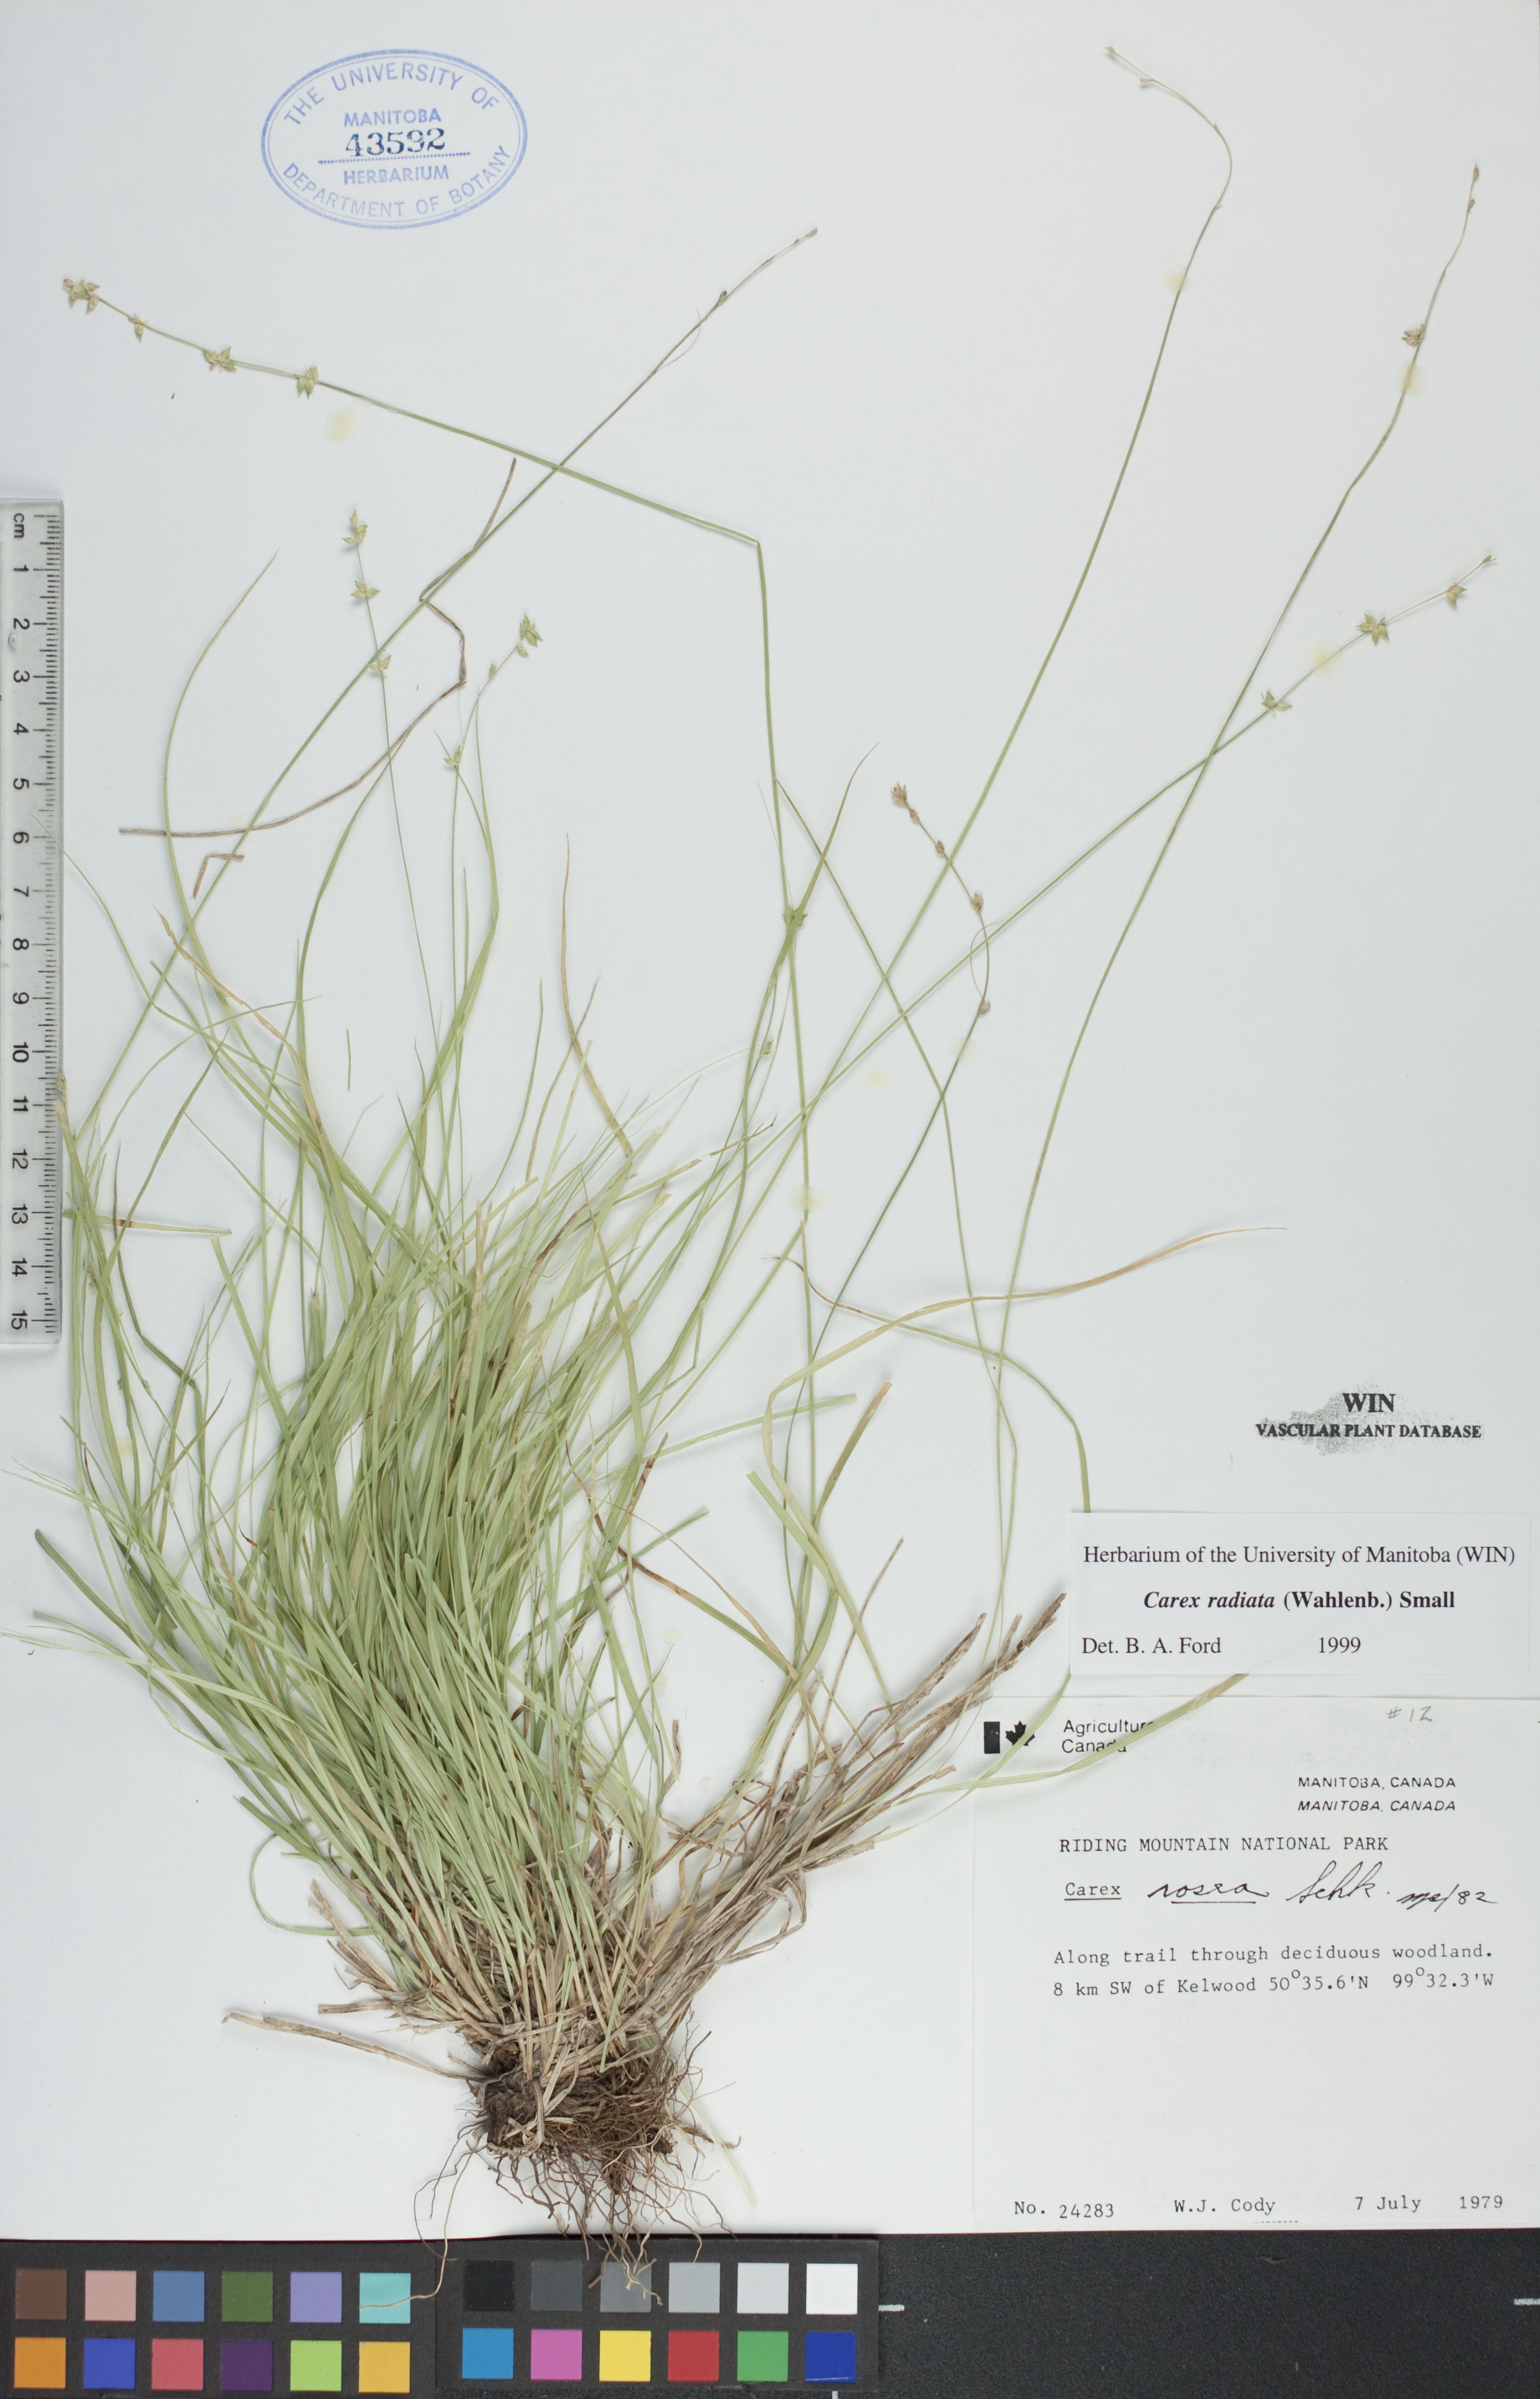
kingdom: Plantae
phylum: Tracheophyta
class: Liliopsida
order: Poales
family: Cyperaceae
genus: Carex
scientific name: Carex radiata
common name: Eastern star sedge
